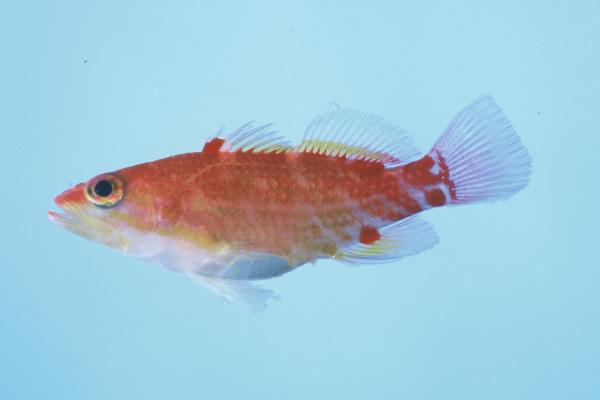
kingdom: Animalia
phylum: Chordata
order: Perciformes
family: Serranidae
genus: Plectranthias
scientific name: Plectranthias winniensis
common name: Redblotch perchlet
